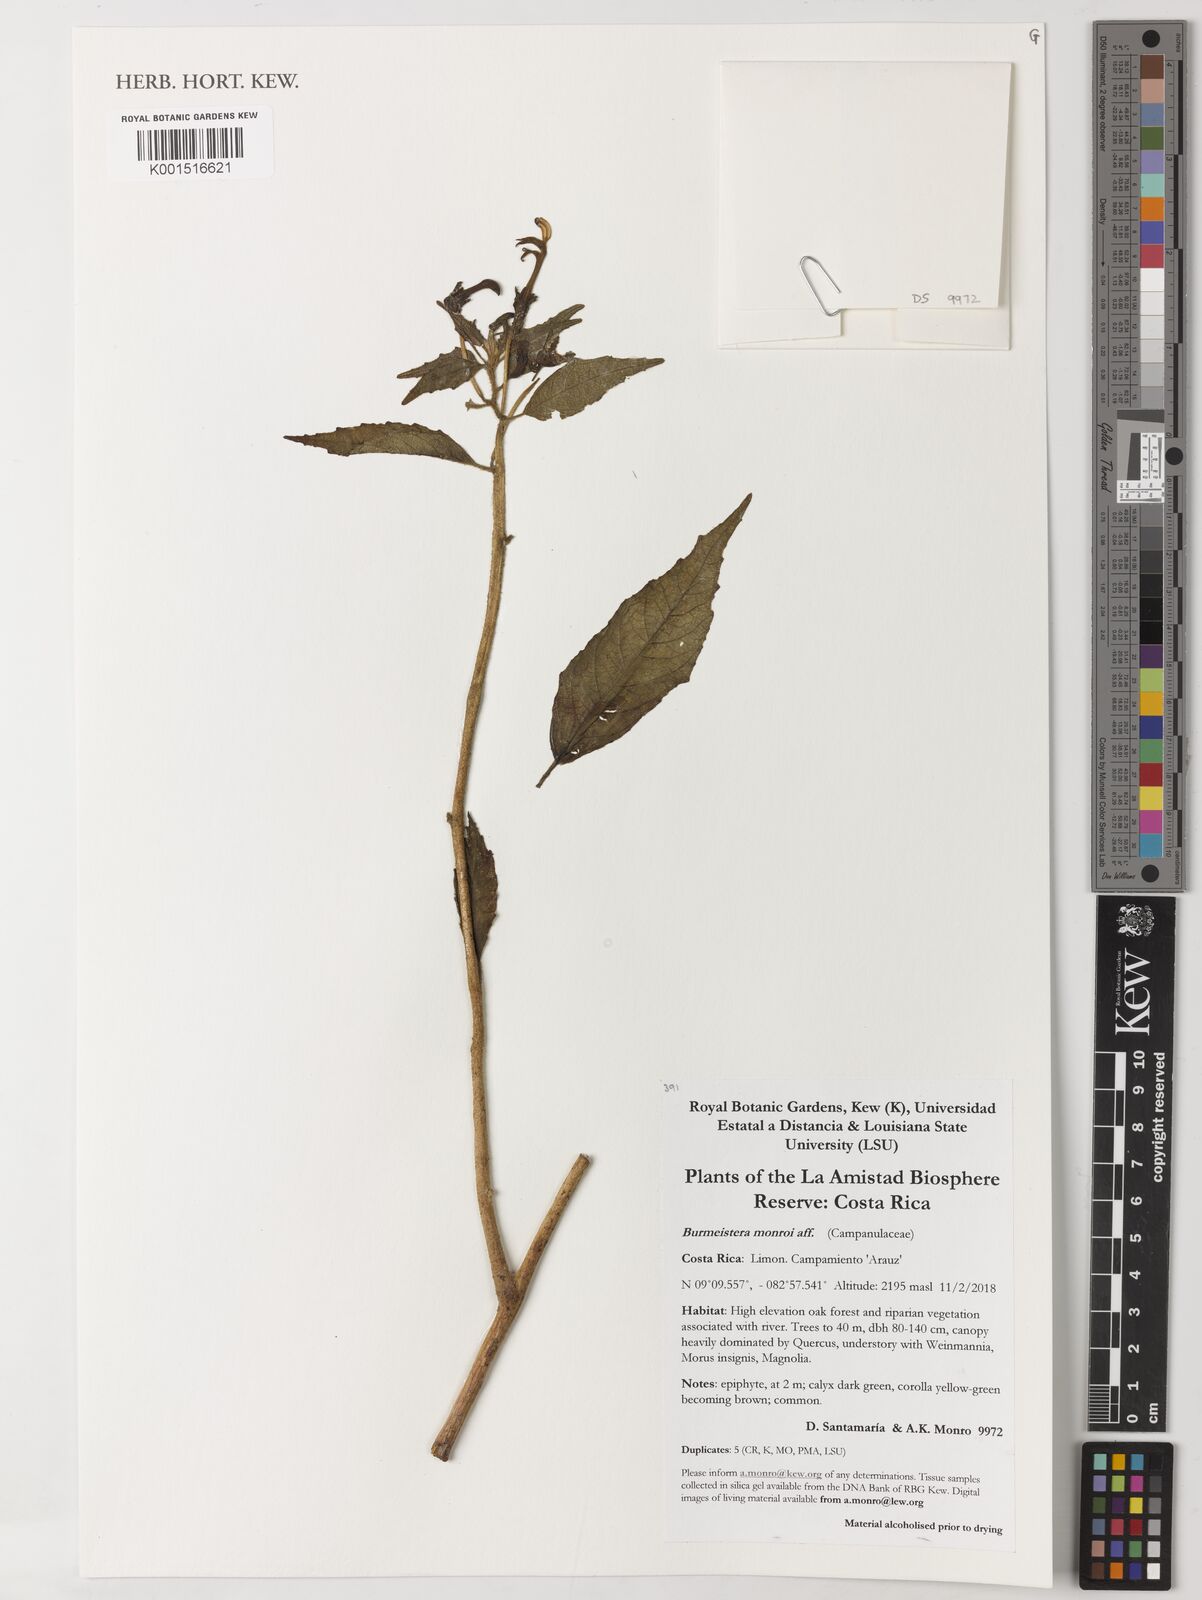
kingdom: Plantae
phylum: Tracheophyta
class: Magnoliopsida
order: Asterales
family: Campanulaceae
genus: Burmeistera
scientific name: Burmeistera monroi
